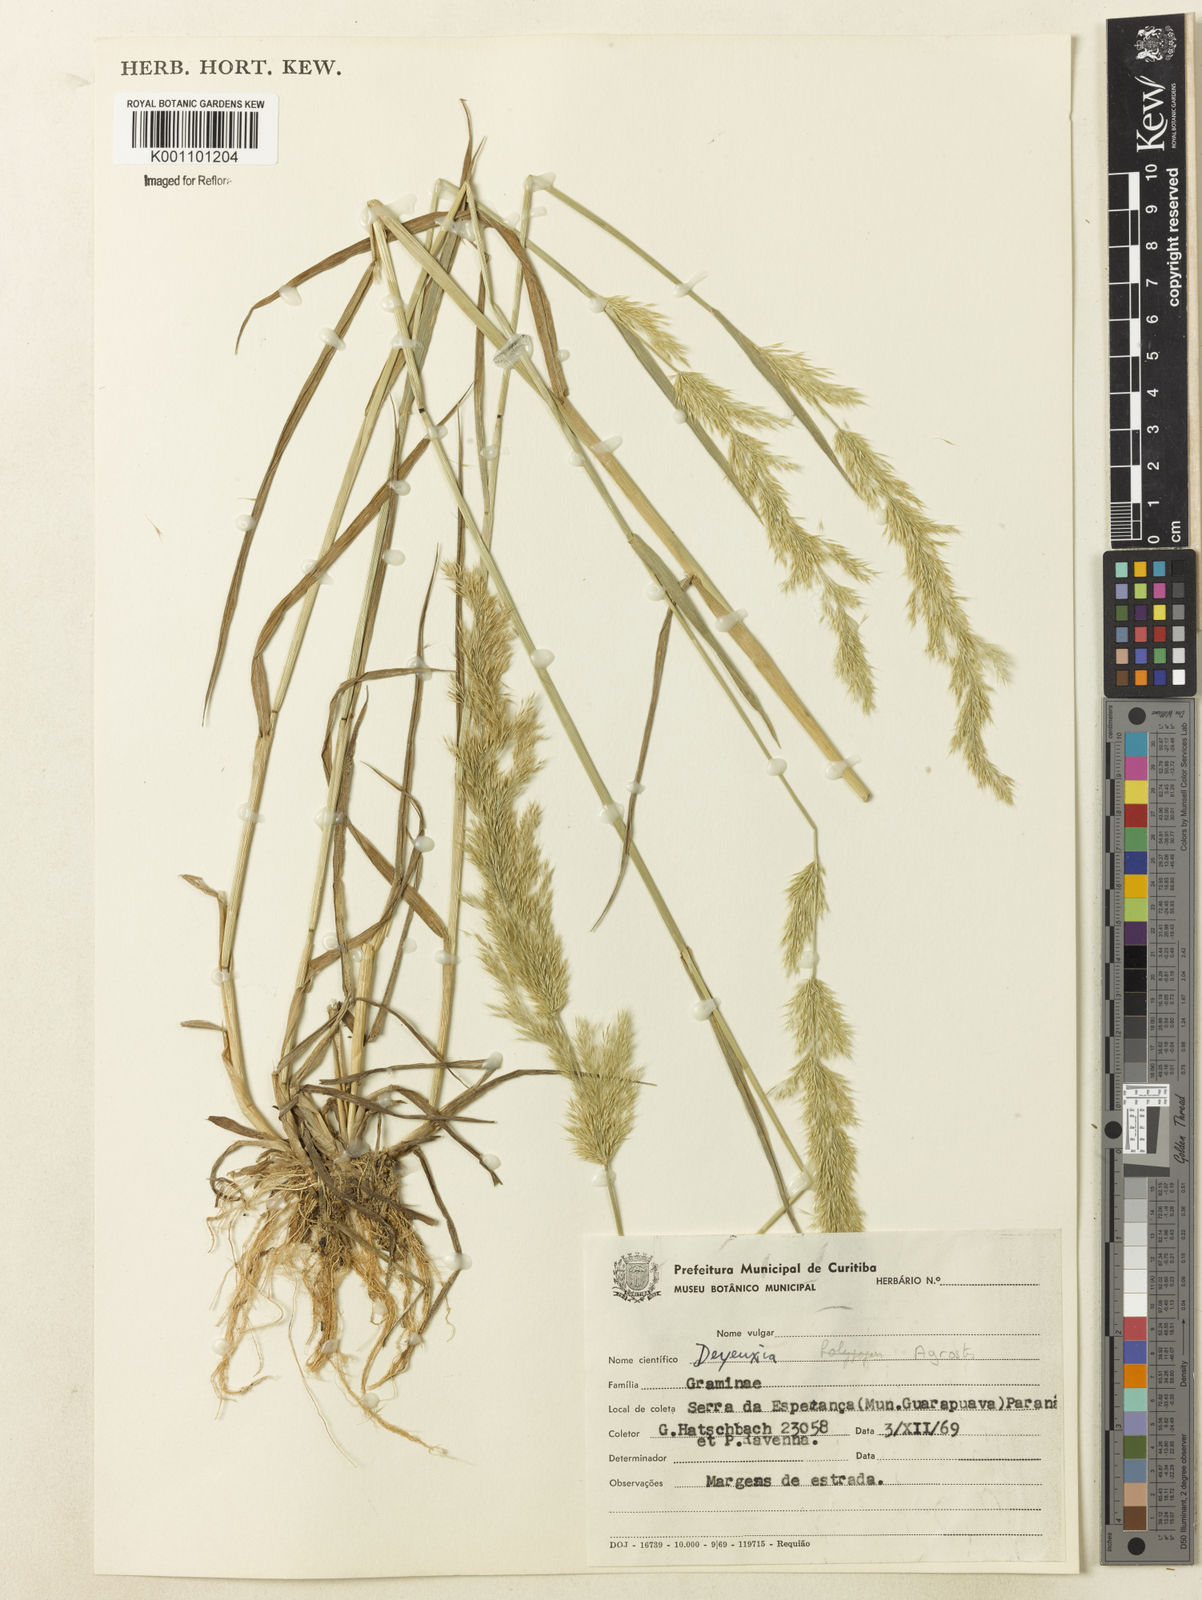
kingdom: Plantae
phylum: Tracheophyta
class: Liliopsida
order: Poales
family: Poaceae
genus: Polypogon
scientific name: Polypogon elongatus
